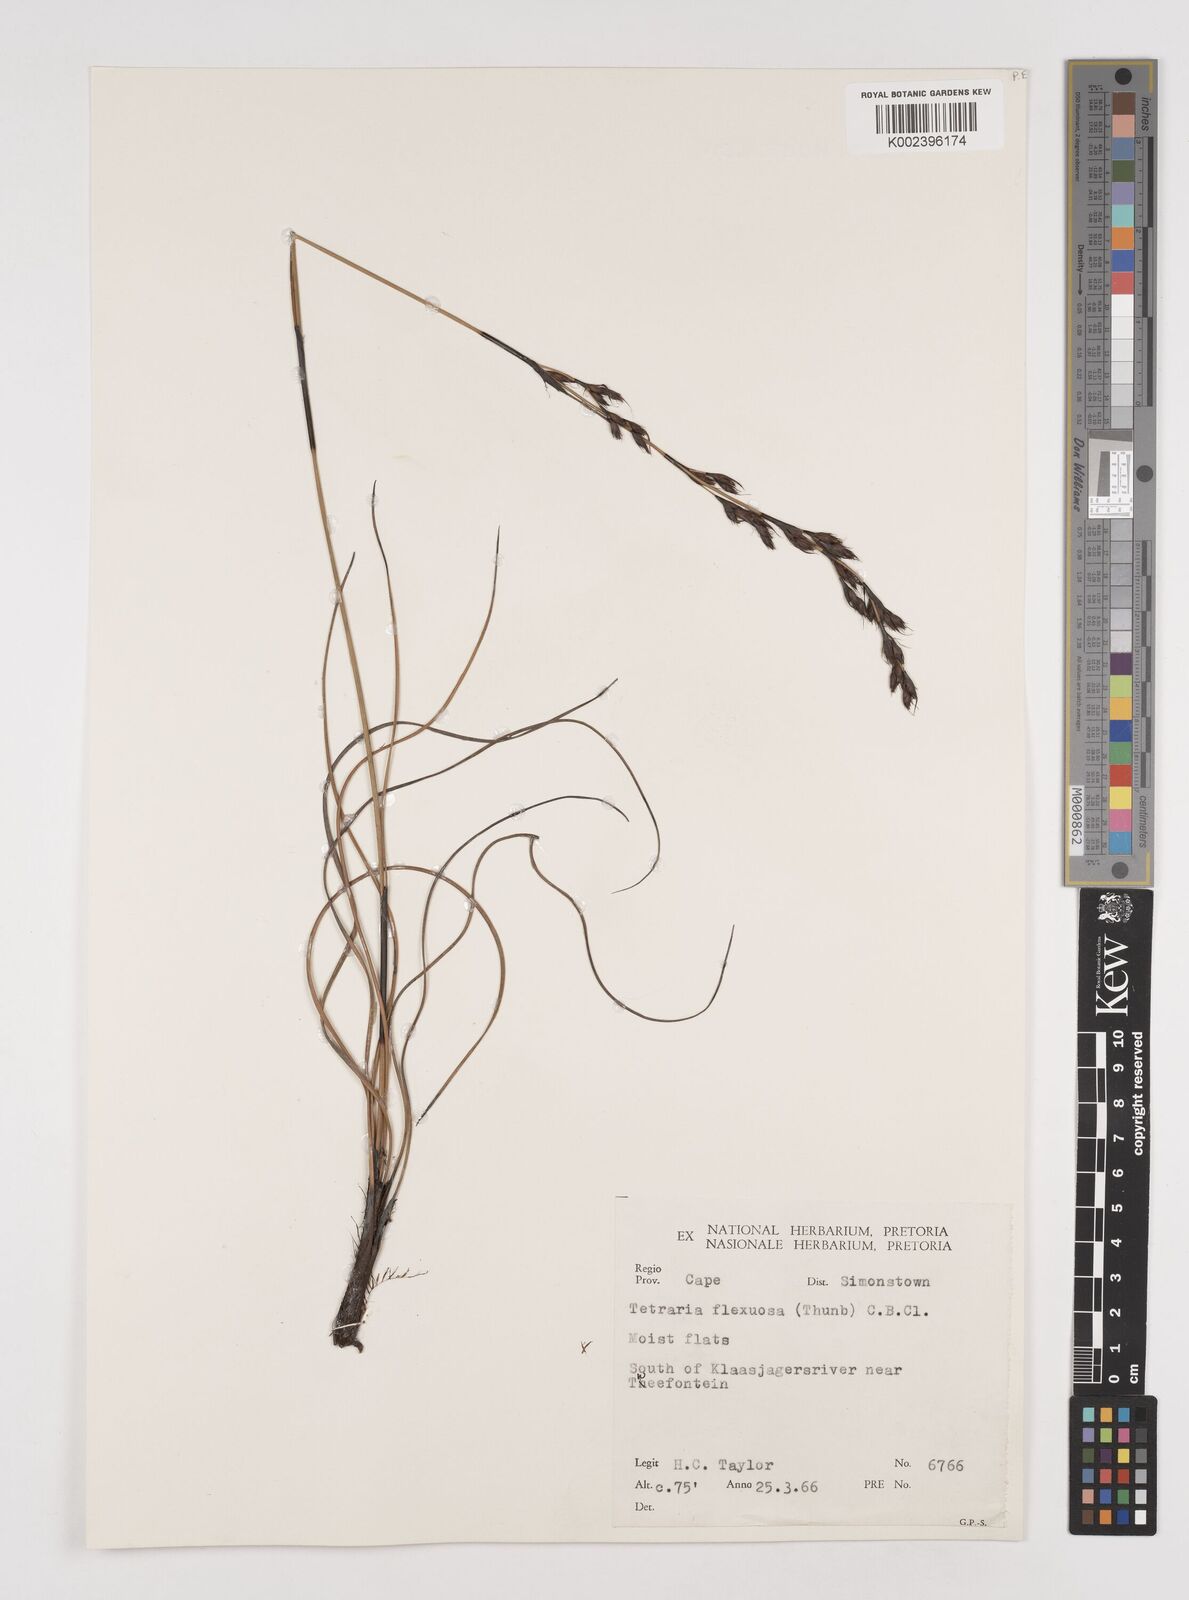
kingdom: Plantae
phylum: Tracheophyta
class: Liliopsida
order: Poales
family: Cyperaceae
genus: Tetraria
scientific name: Tetraria flexuosa
